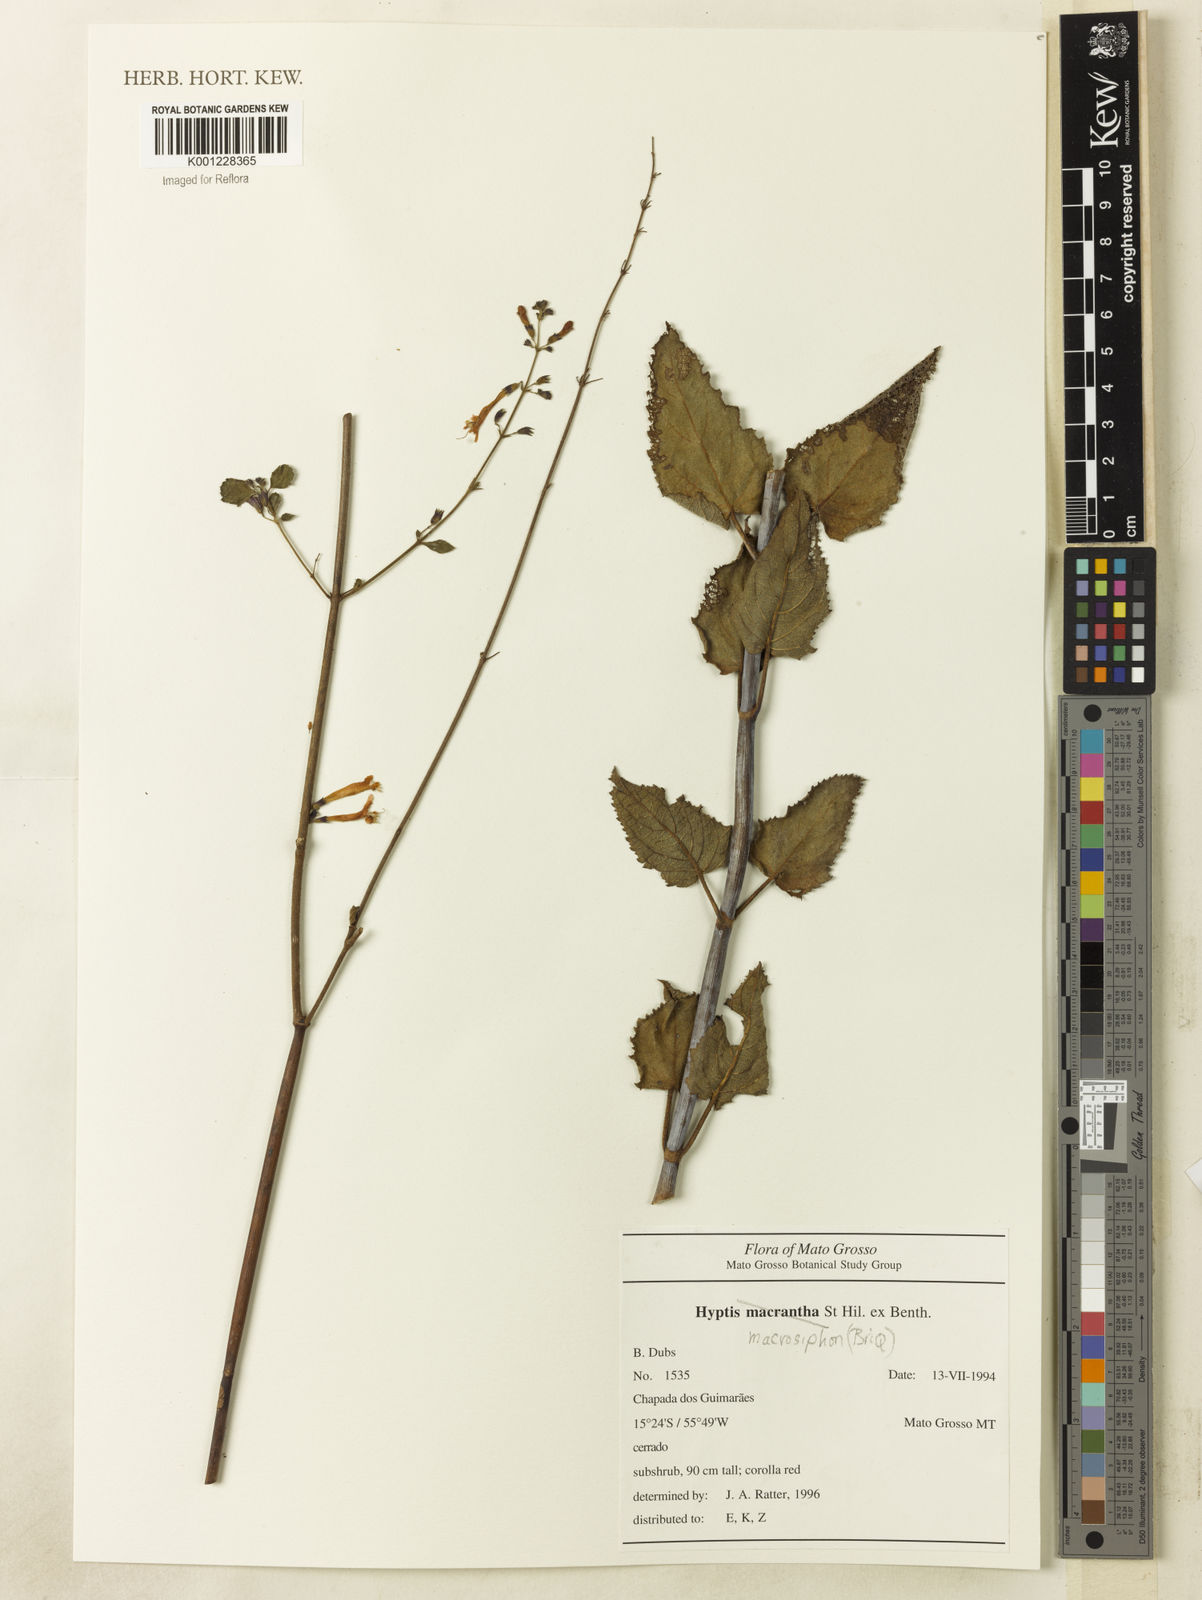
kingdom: Plantae
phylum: Tracheophyta
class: Magnoliopsida
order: Lamiales
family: Lamiaceae
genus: Hypenia
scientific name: Hypenia macrosiphon
